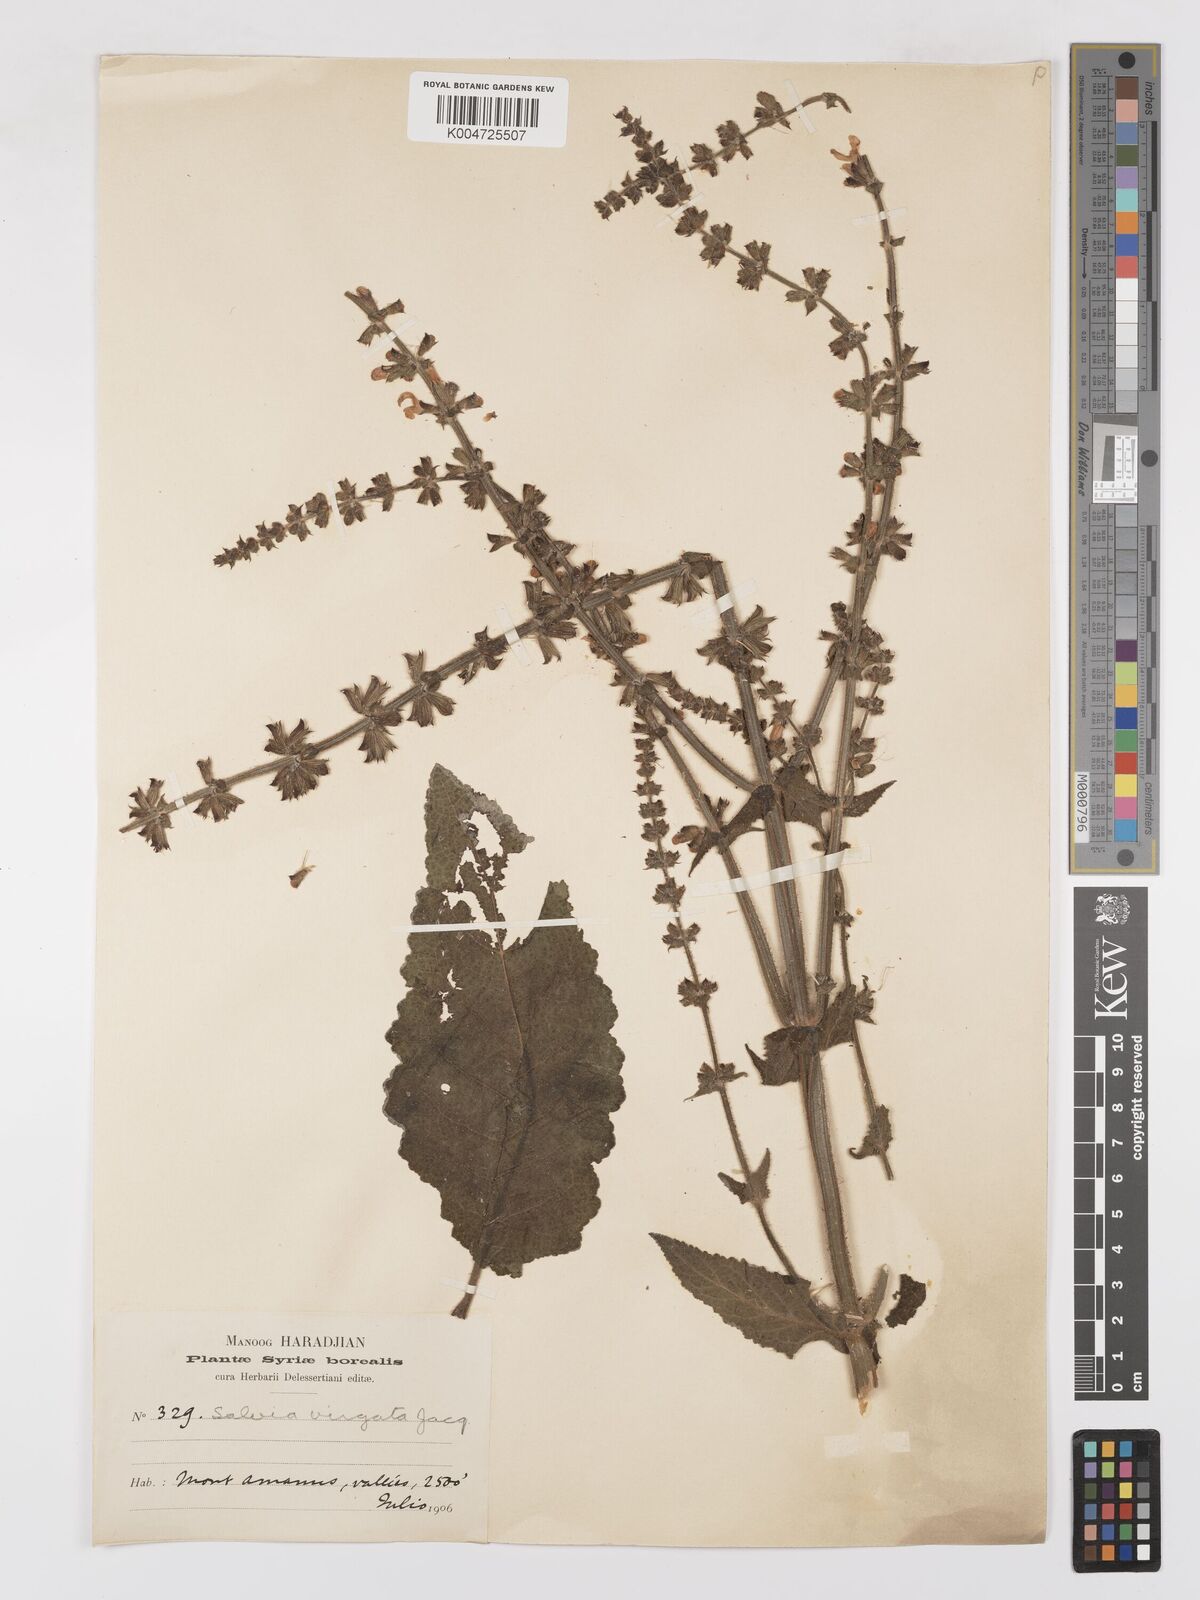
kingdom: Plantae
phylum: Tracheophyta
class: Magnoliopsida
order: Lamiales
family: Lamiaceae
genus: Salvia
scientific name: Salvia
